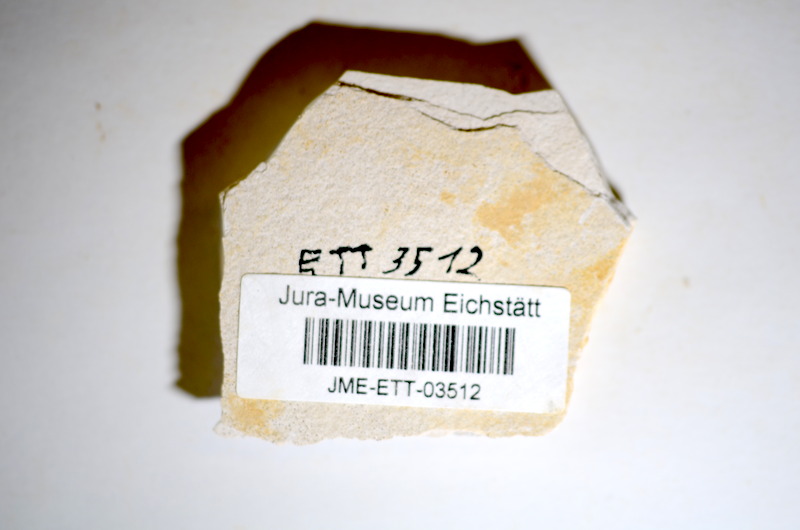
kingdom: Animalia
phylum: Chordata
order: Salmoniformes
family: Orthogonikleithridae
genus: Orthogonikleithrus
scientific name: Orthogonikleithrus hoelli
